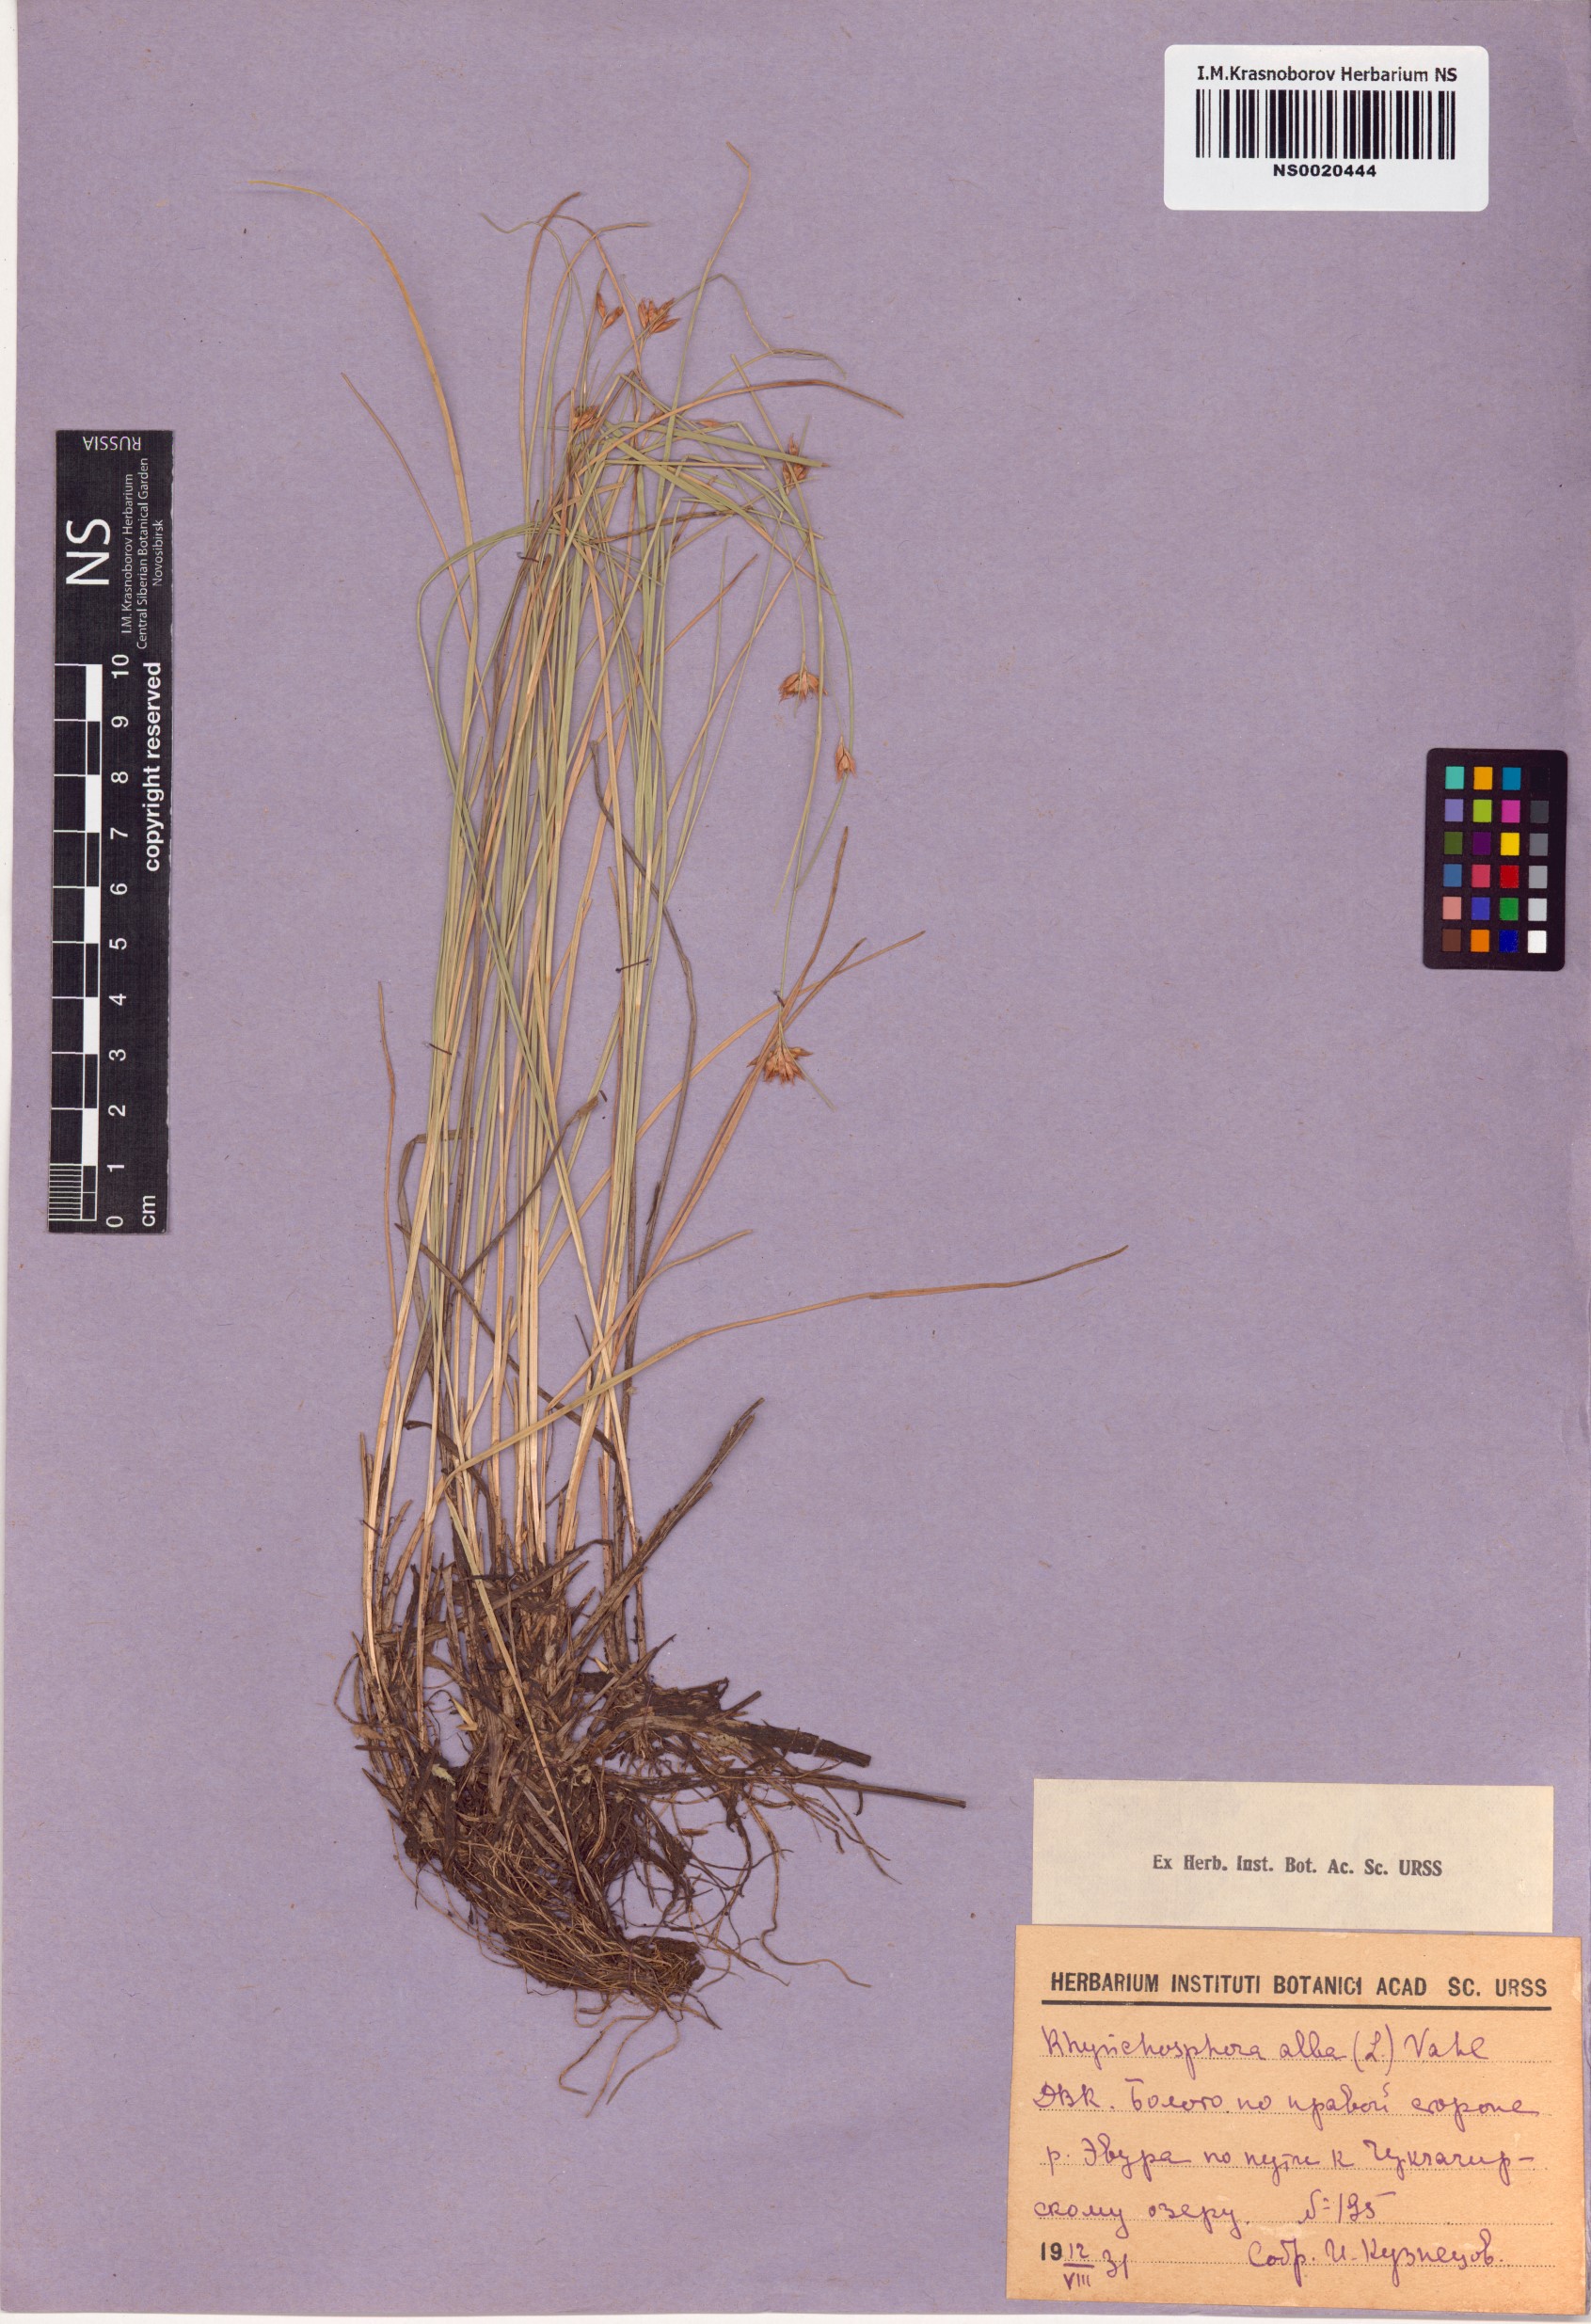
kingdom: Plantae
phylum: Tracheophyta
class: Liliopsida
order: Poales
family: Cyperaceae
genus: Rhynchospora
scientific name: Rhynchospora alba
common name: White beak-sedge
